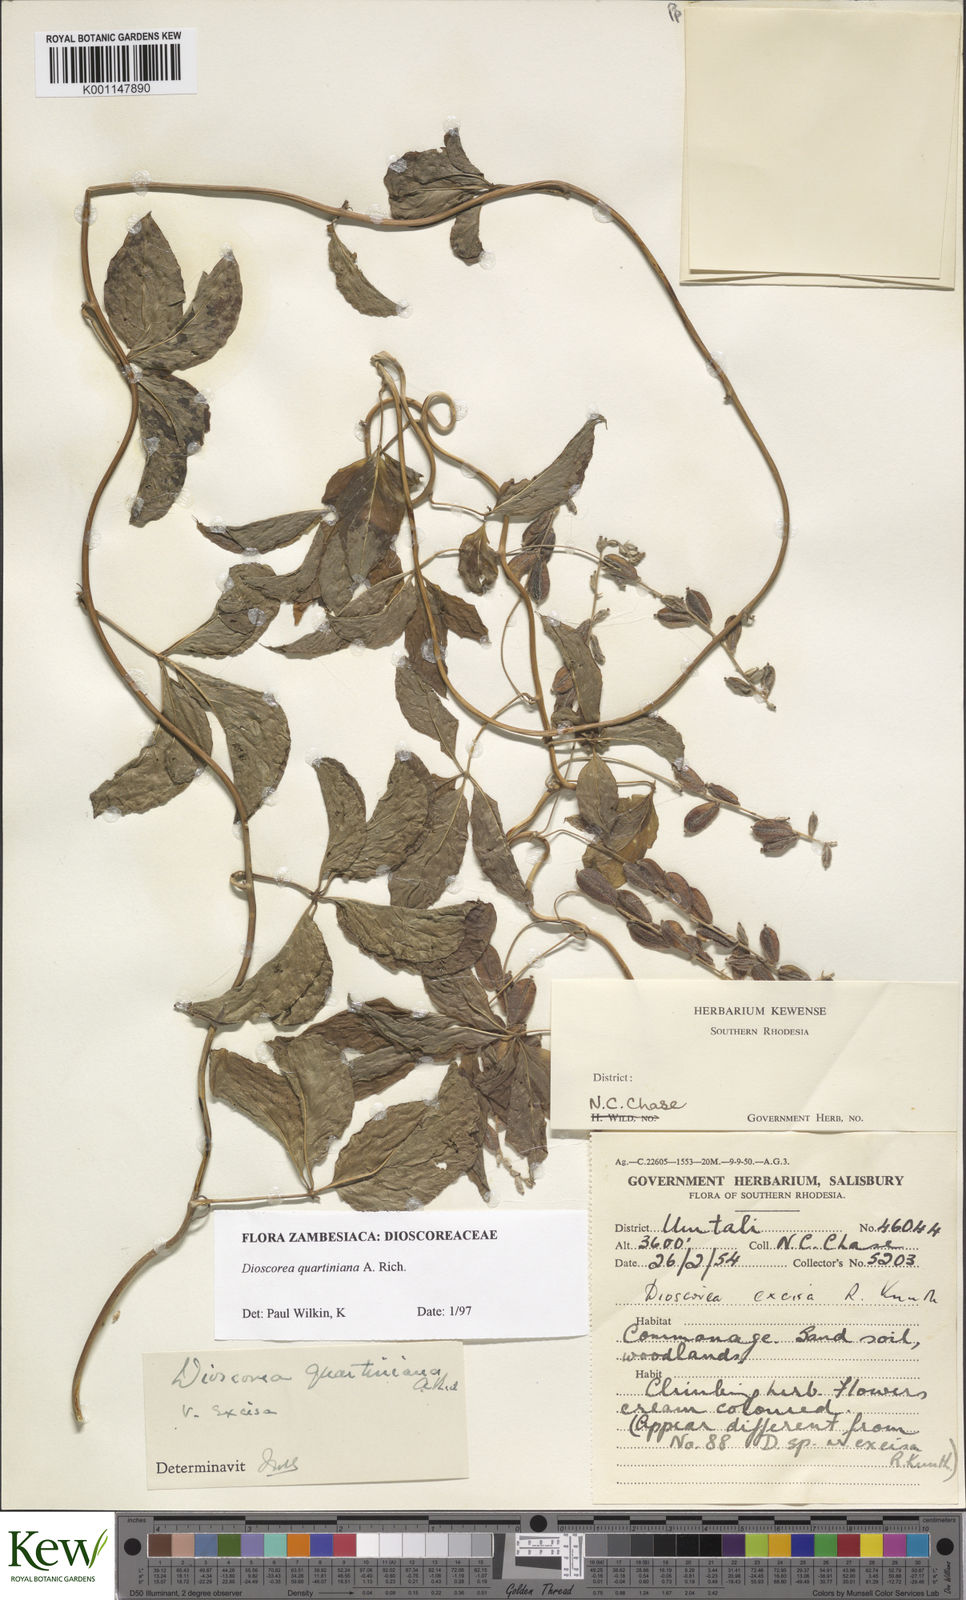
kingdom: Plantae
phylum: Tracheophyta
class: Liliopsida
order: Dioscoreales
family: Dioscoreaceae
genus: Dioscorea
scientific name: Dioscorea quartiniana
